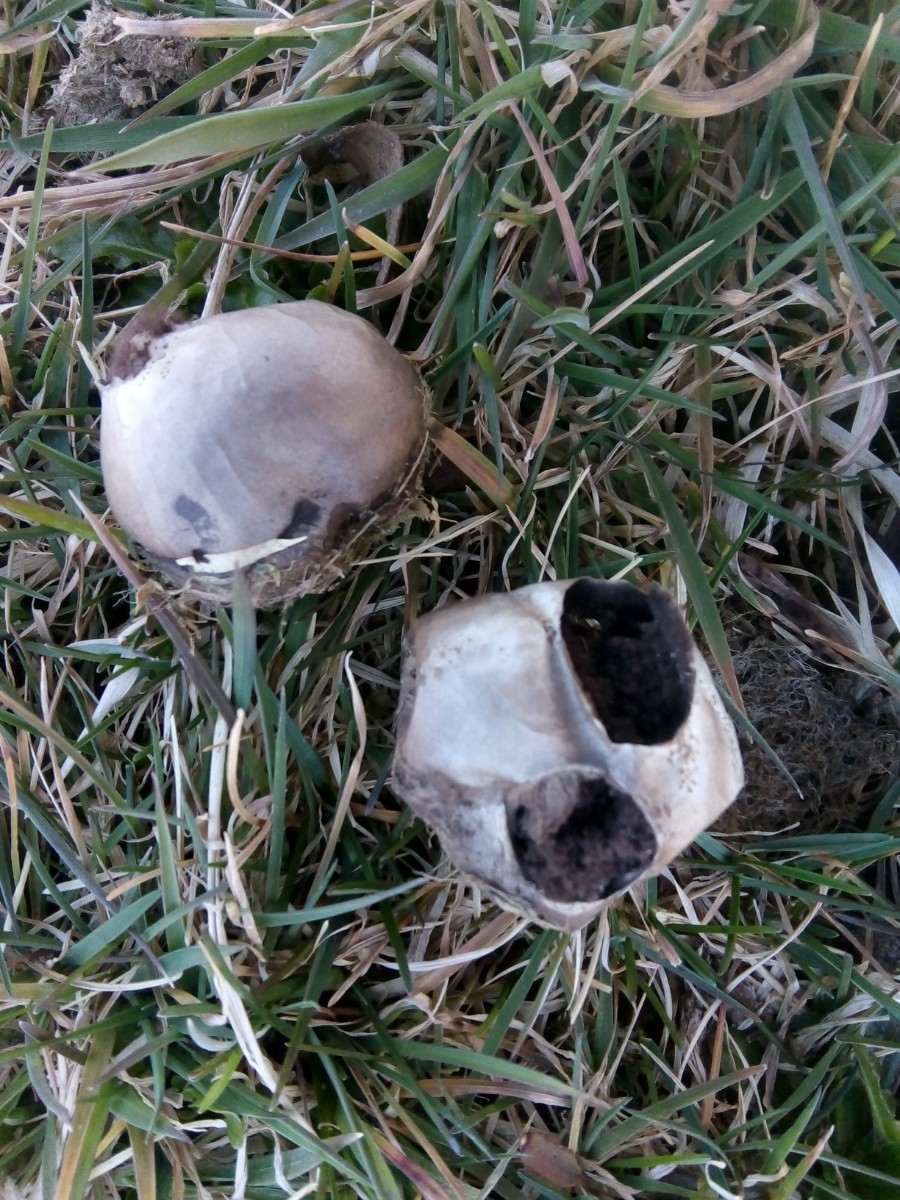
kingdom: Fungi
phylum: Basidiomycota
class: Agaricomycetes
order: Agaricales
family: Lycoperdaceae
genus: Bovista
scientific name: Bovista plumbea
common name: blygrå bovist
